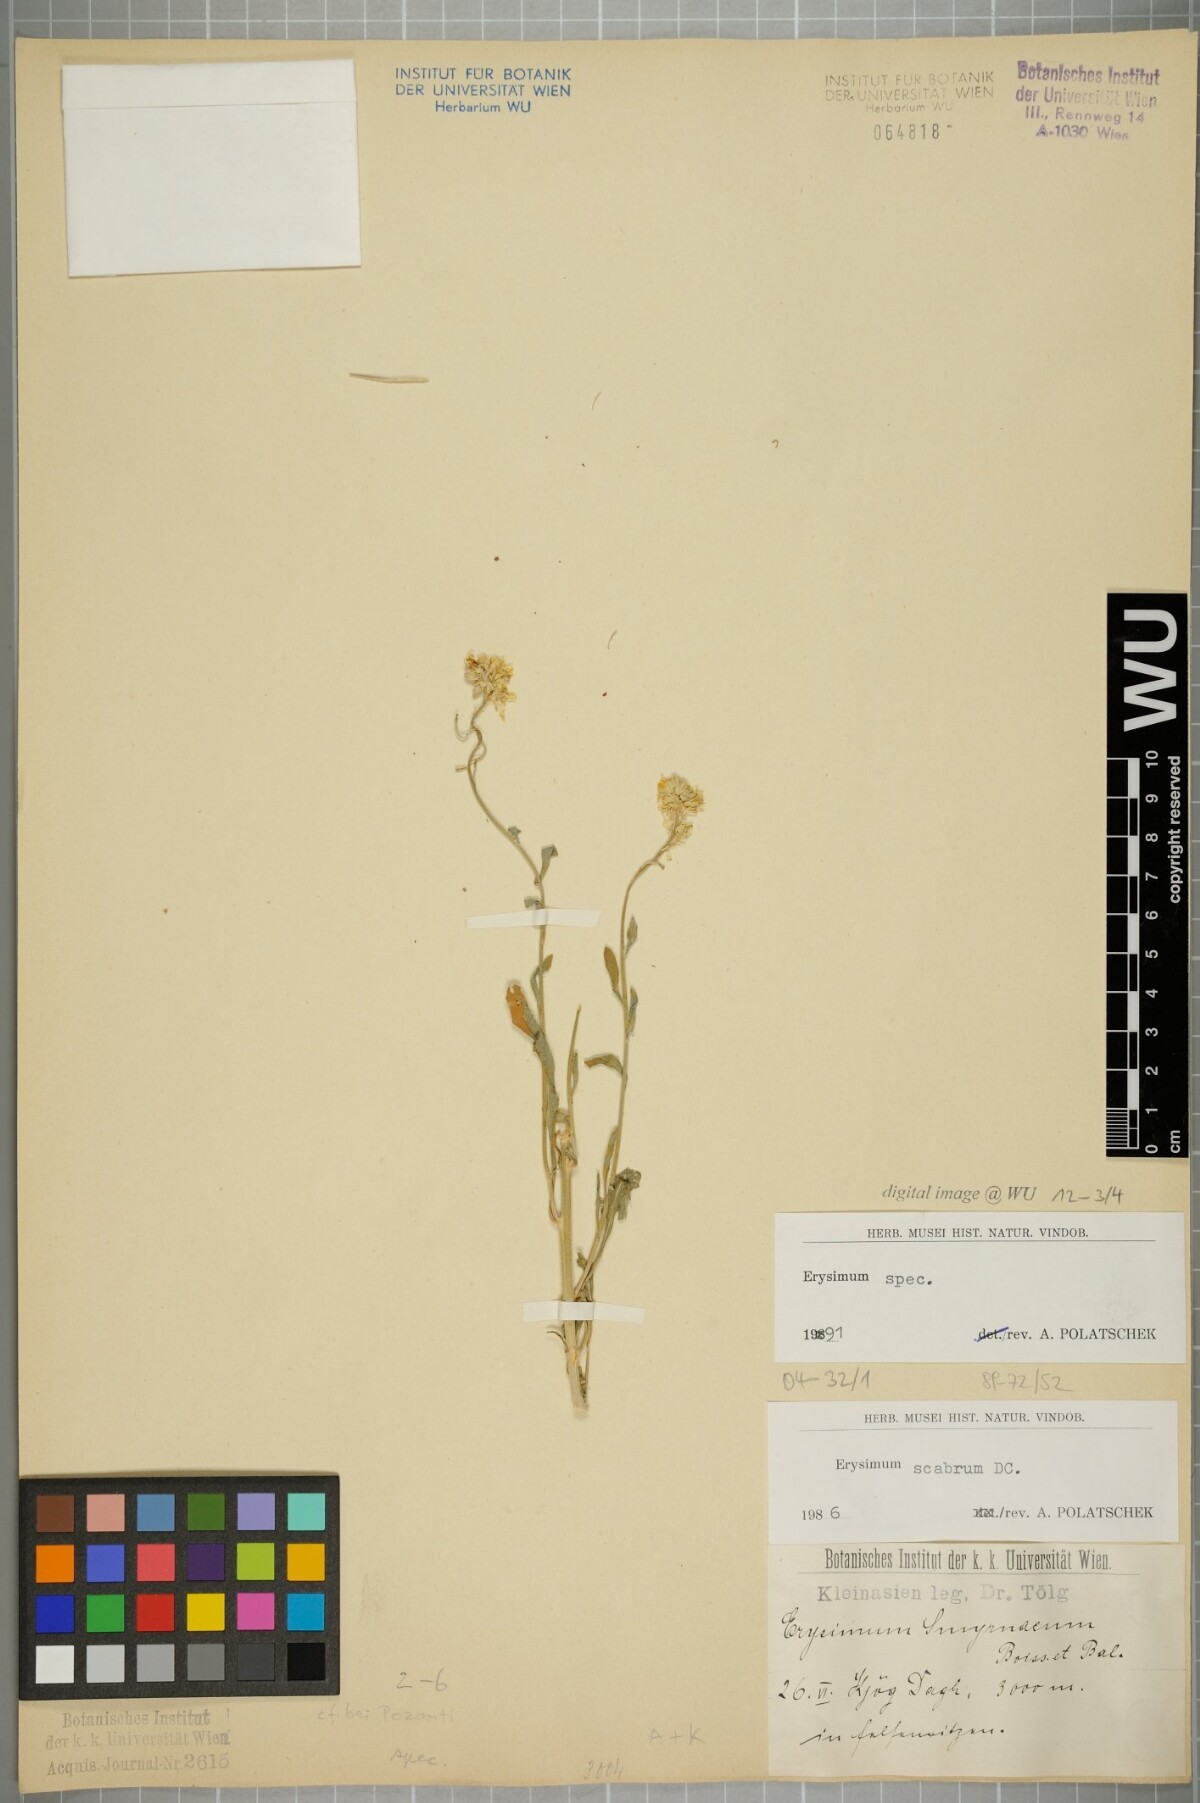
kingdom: Plantae
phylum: Tracheophyta
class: Magnoliopsida
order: Brassicales
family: Brassicaceae
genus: Erysimum
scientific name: Erysimum
